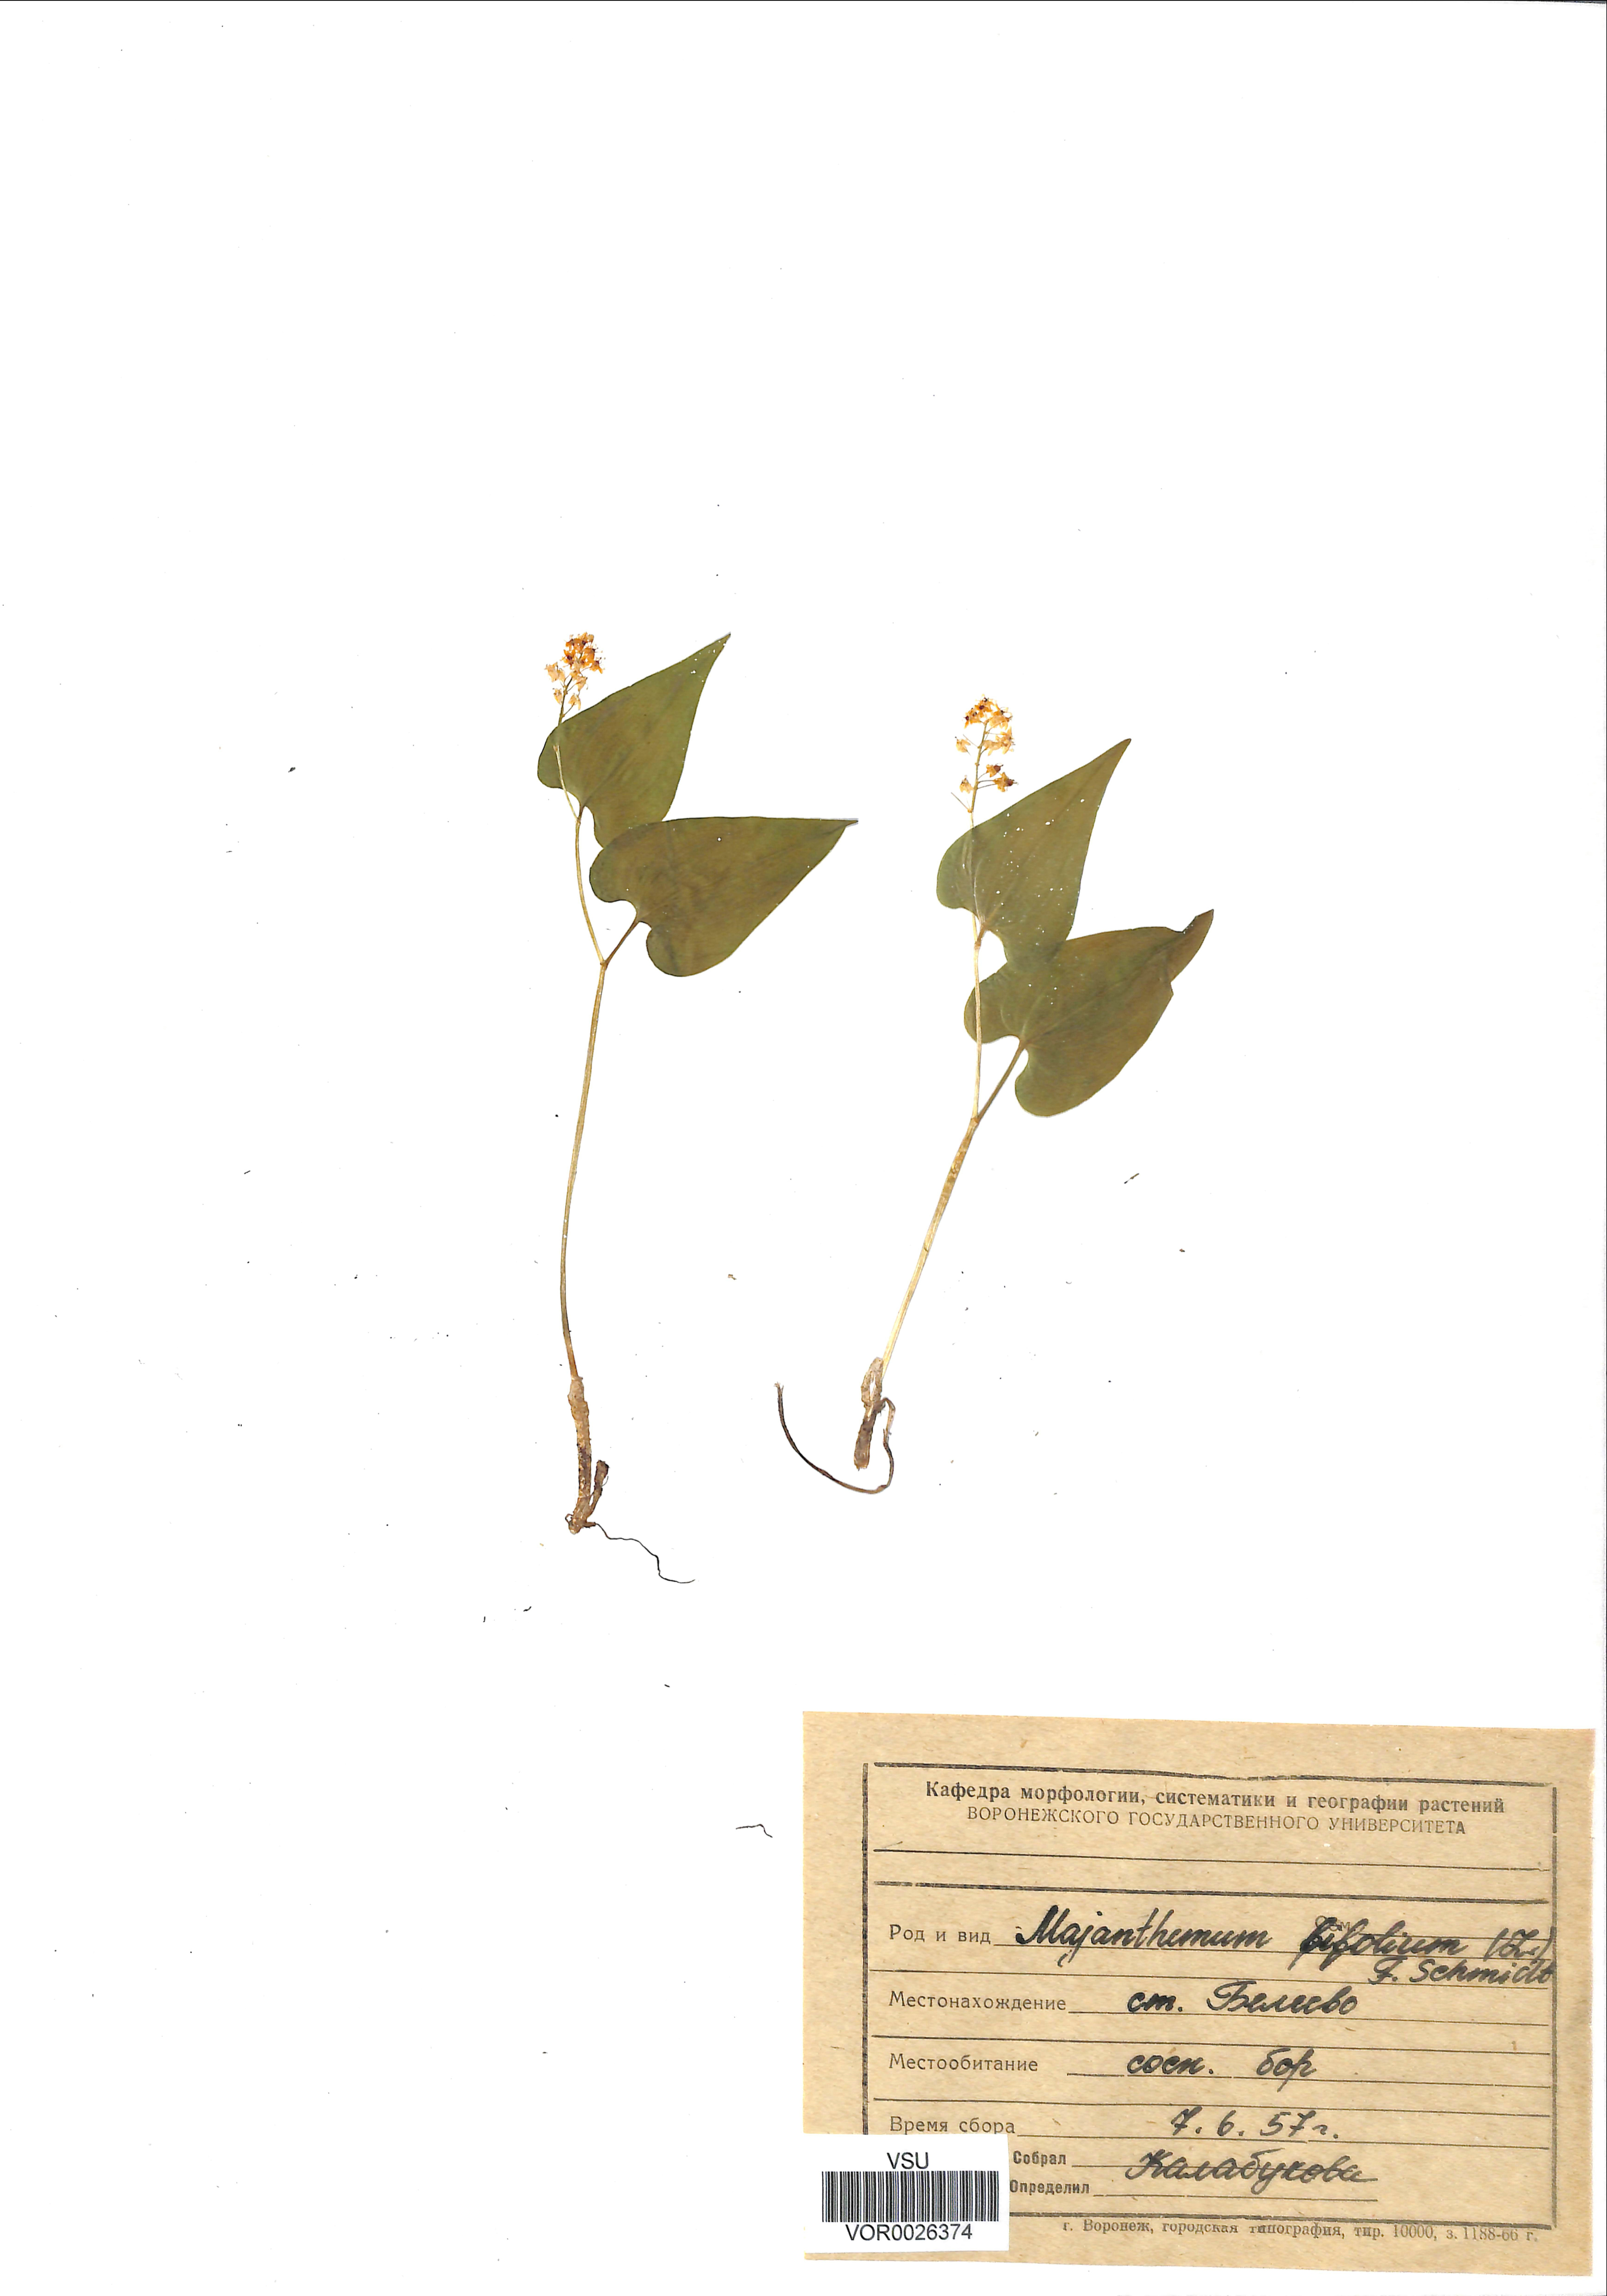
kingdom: Plantae
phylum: Tracheophyta
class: Liliopsida
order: Asparagales
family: Asparagaceae
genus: Maianthemum
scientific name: Maianthemum bifolium
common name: May lily
